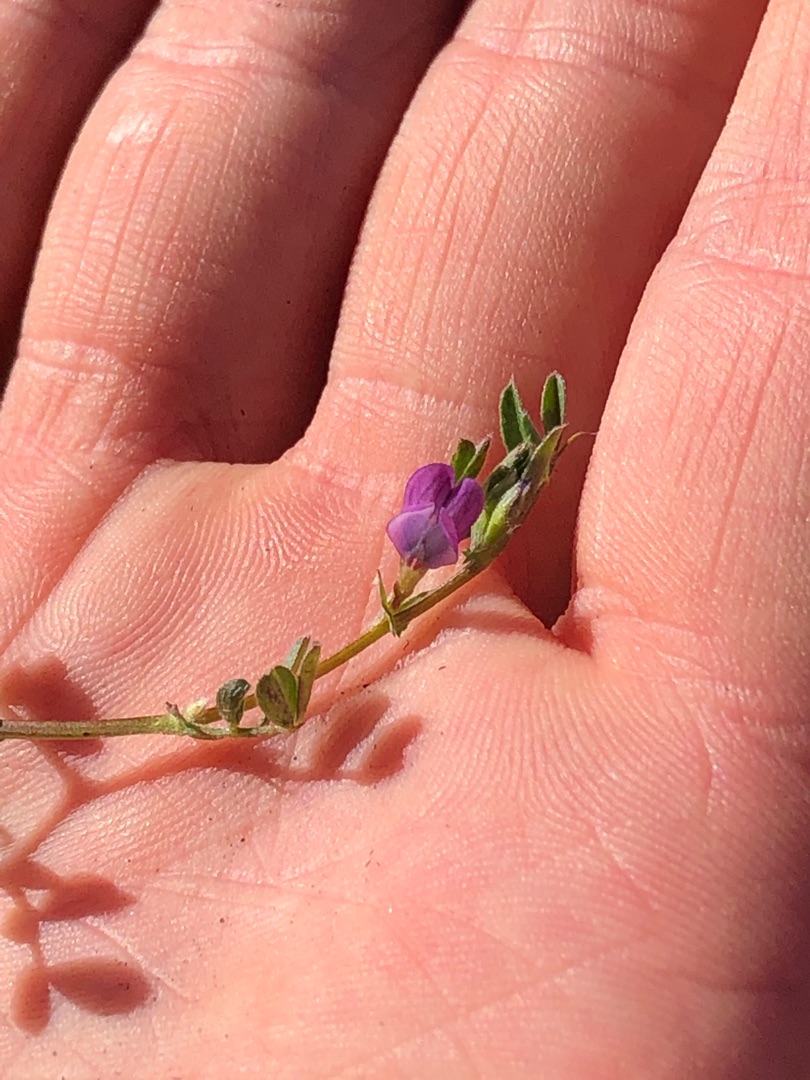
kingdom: Plantae
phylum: Tracheophyta
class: Magnoliopsida
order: Fabales
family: Fabaceae
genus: Vicia
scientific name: Vicia lathyroides
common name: Vår-vikke
